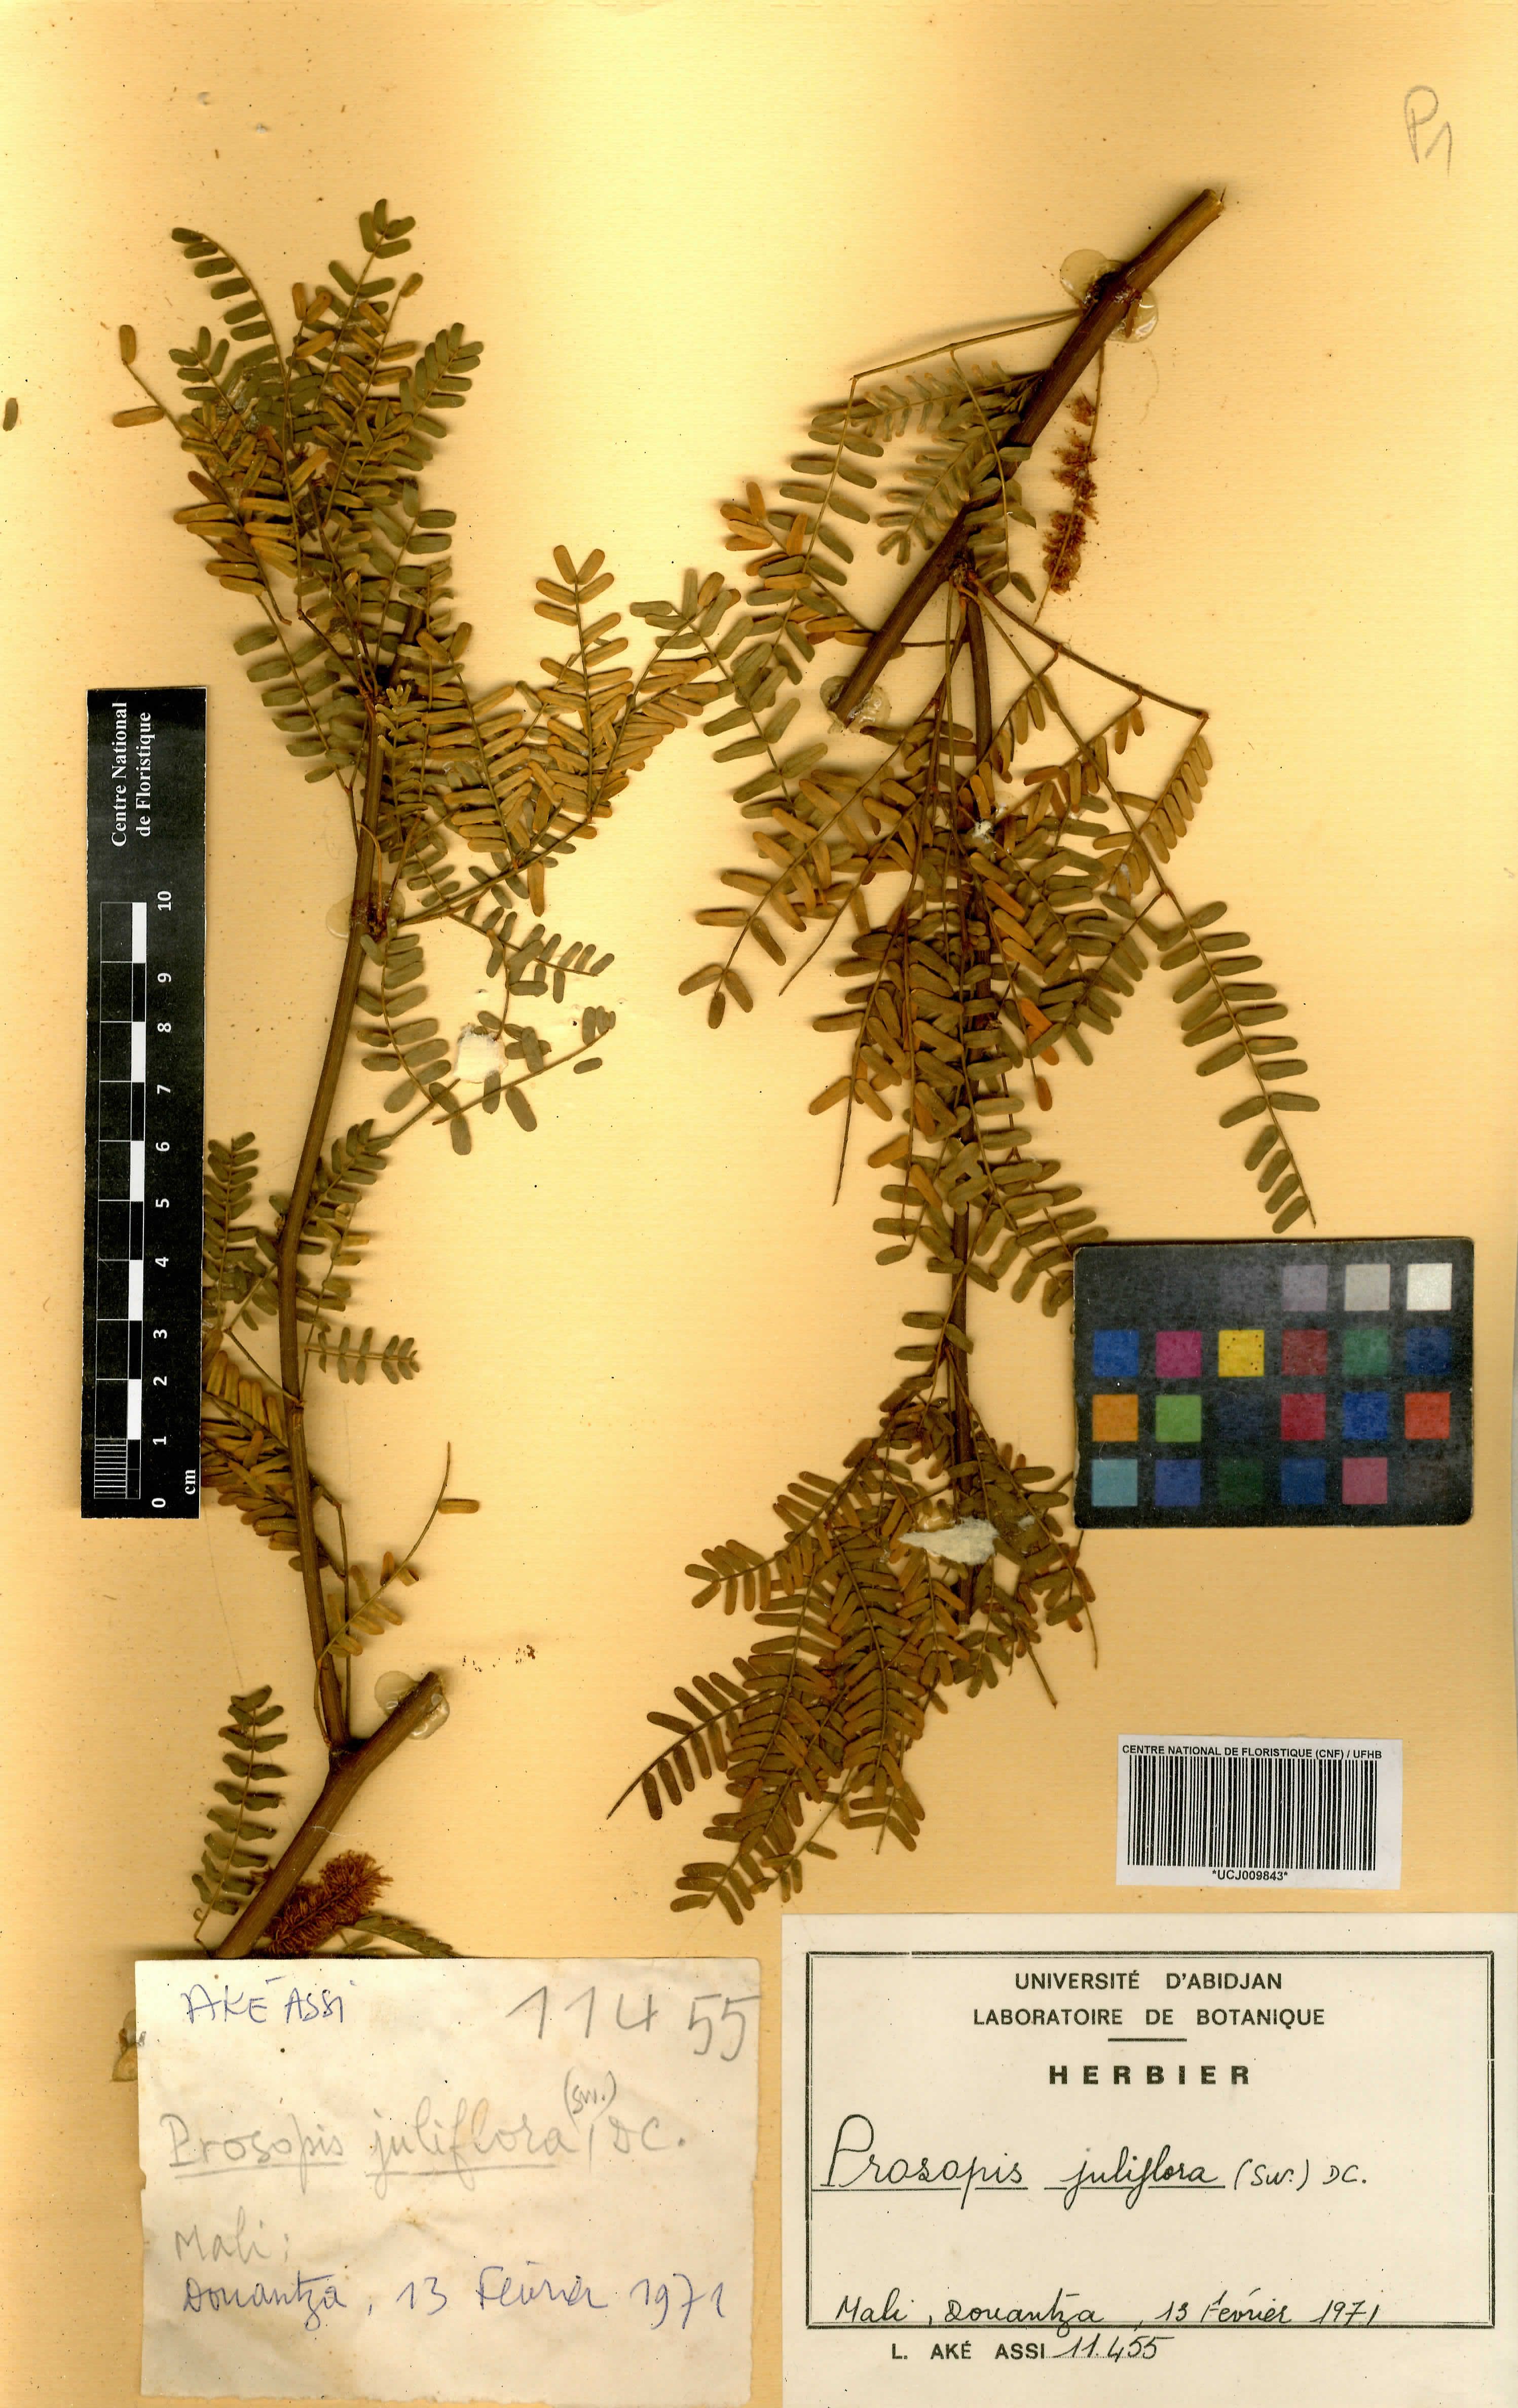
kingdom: Plantae
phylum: Tracheophyta
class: Magnoliopsida
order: Fabales
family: Fabaceae
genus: Prosopis
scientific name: Prosopis juliflora
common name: Mesquite
